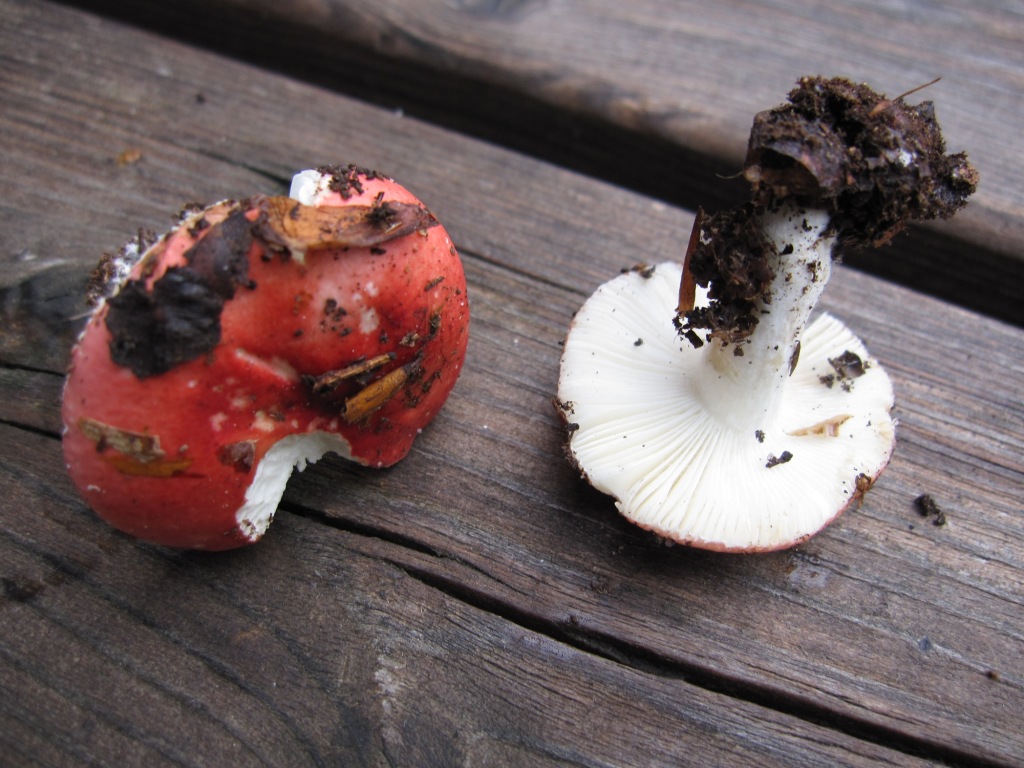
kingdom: Fungi
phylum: Basidiomycota
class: Agaricomycetes
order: Russulales
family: Russulaceae
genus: Russula
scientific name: Russula nobilis
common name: lille gift-skørhat
